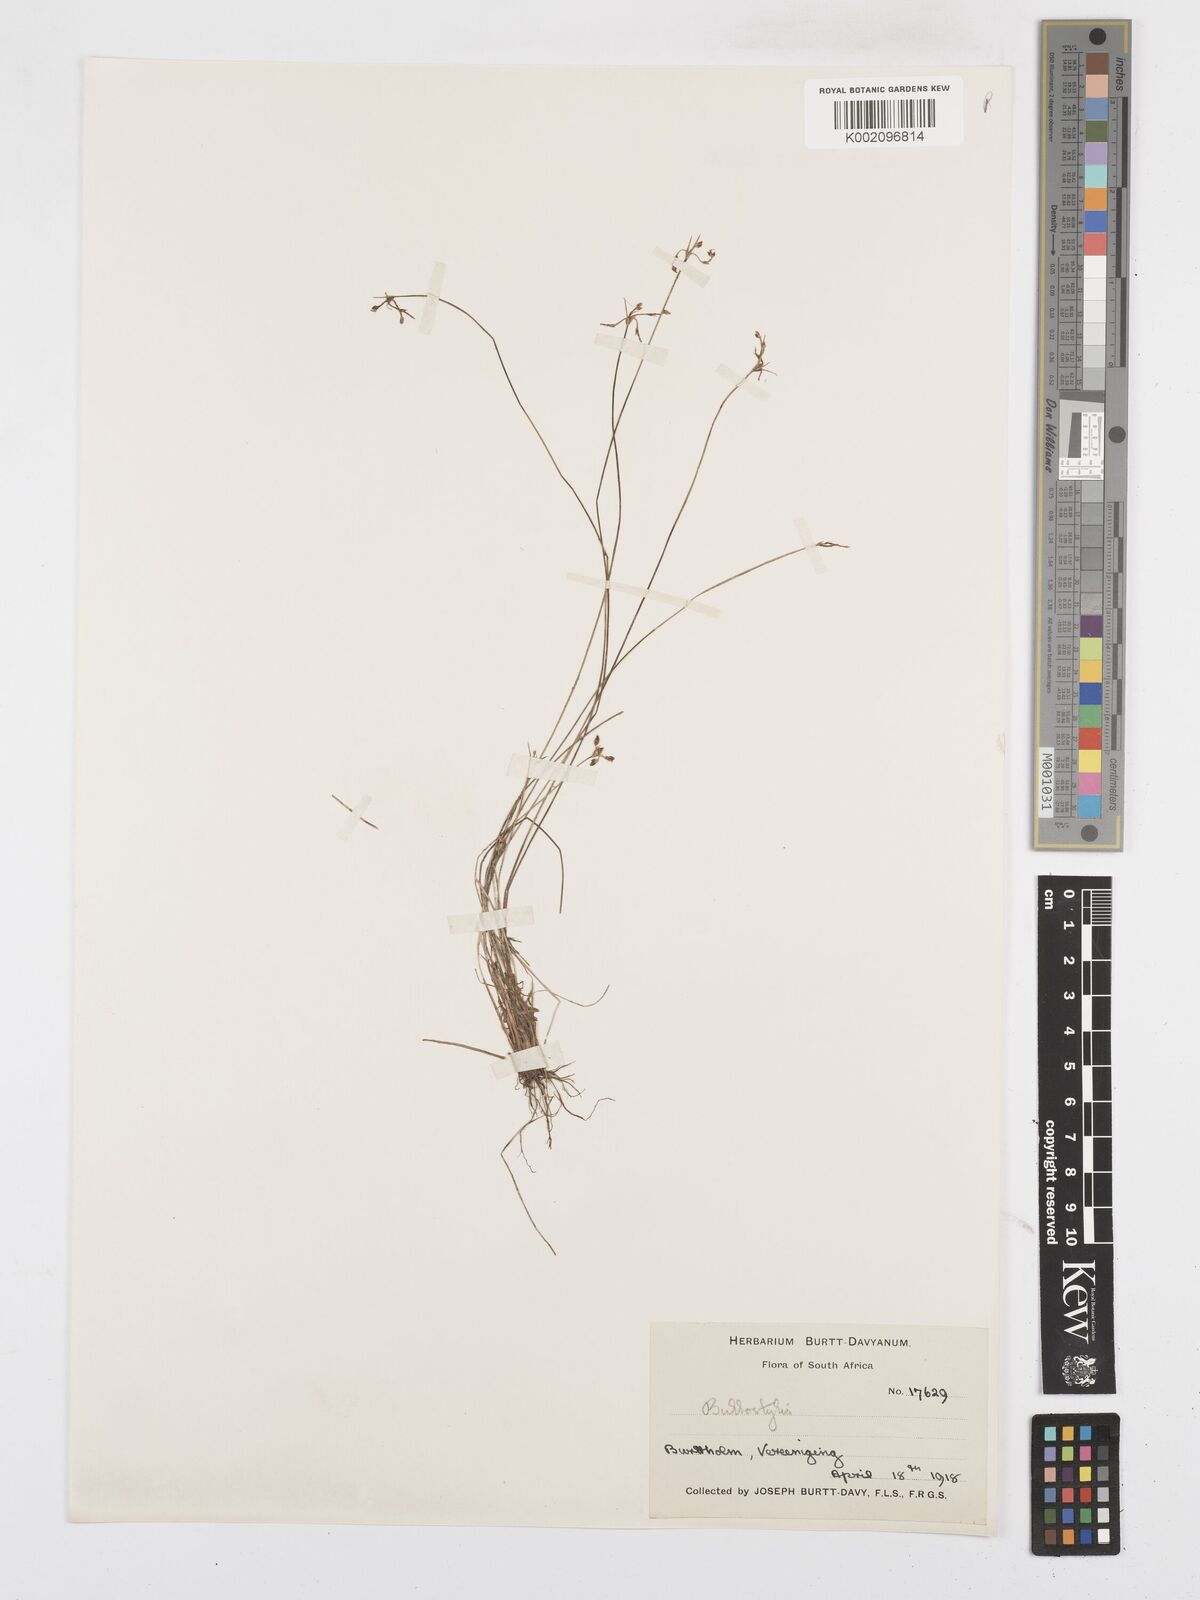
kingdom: Plantae
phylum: Tracheophyta
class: Liliopsida
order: Poales
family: Cyperaceae
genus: Bulbostylis
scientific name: Bulbostylis
